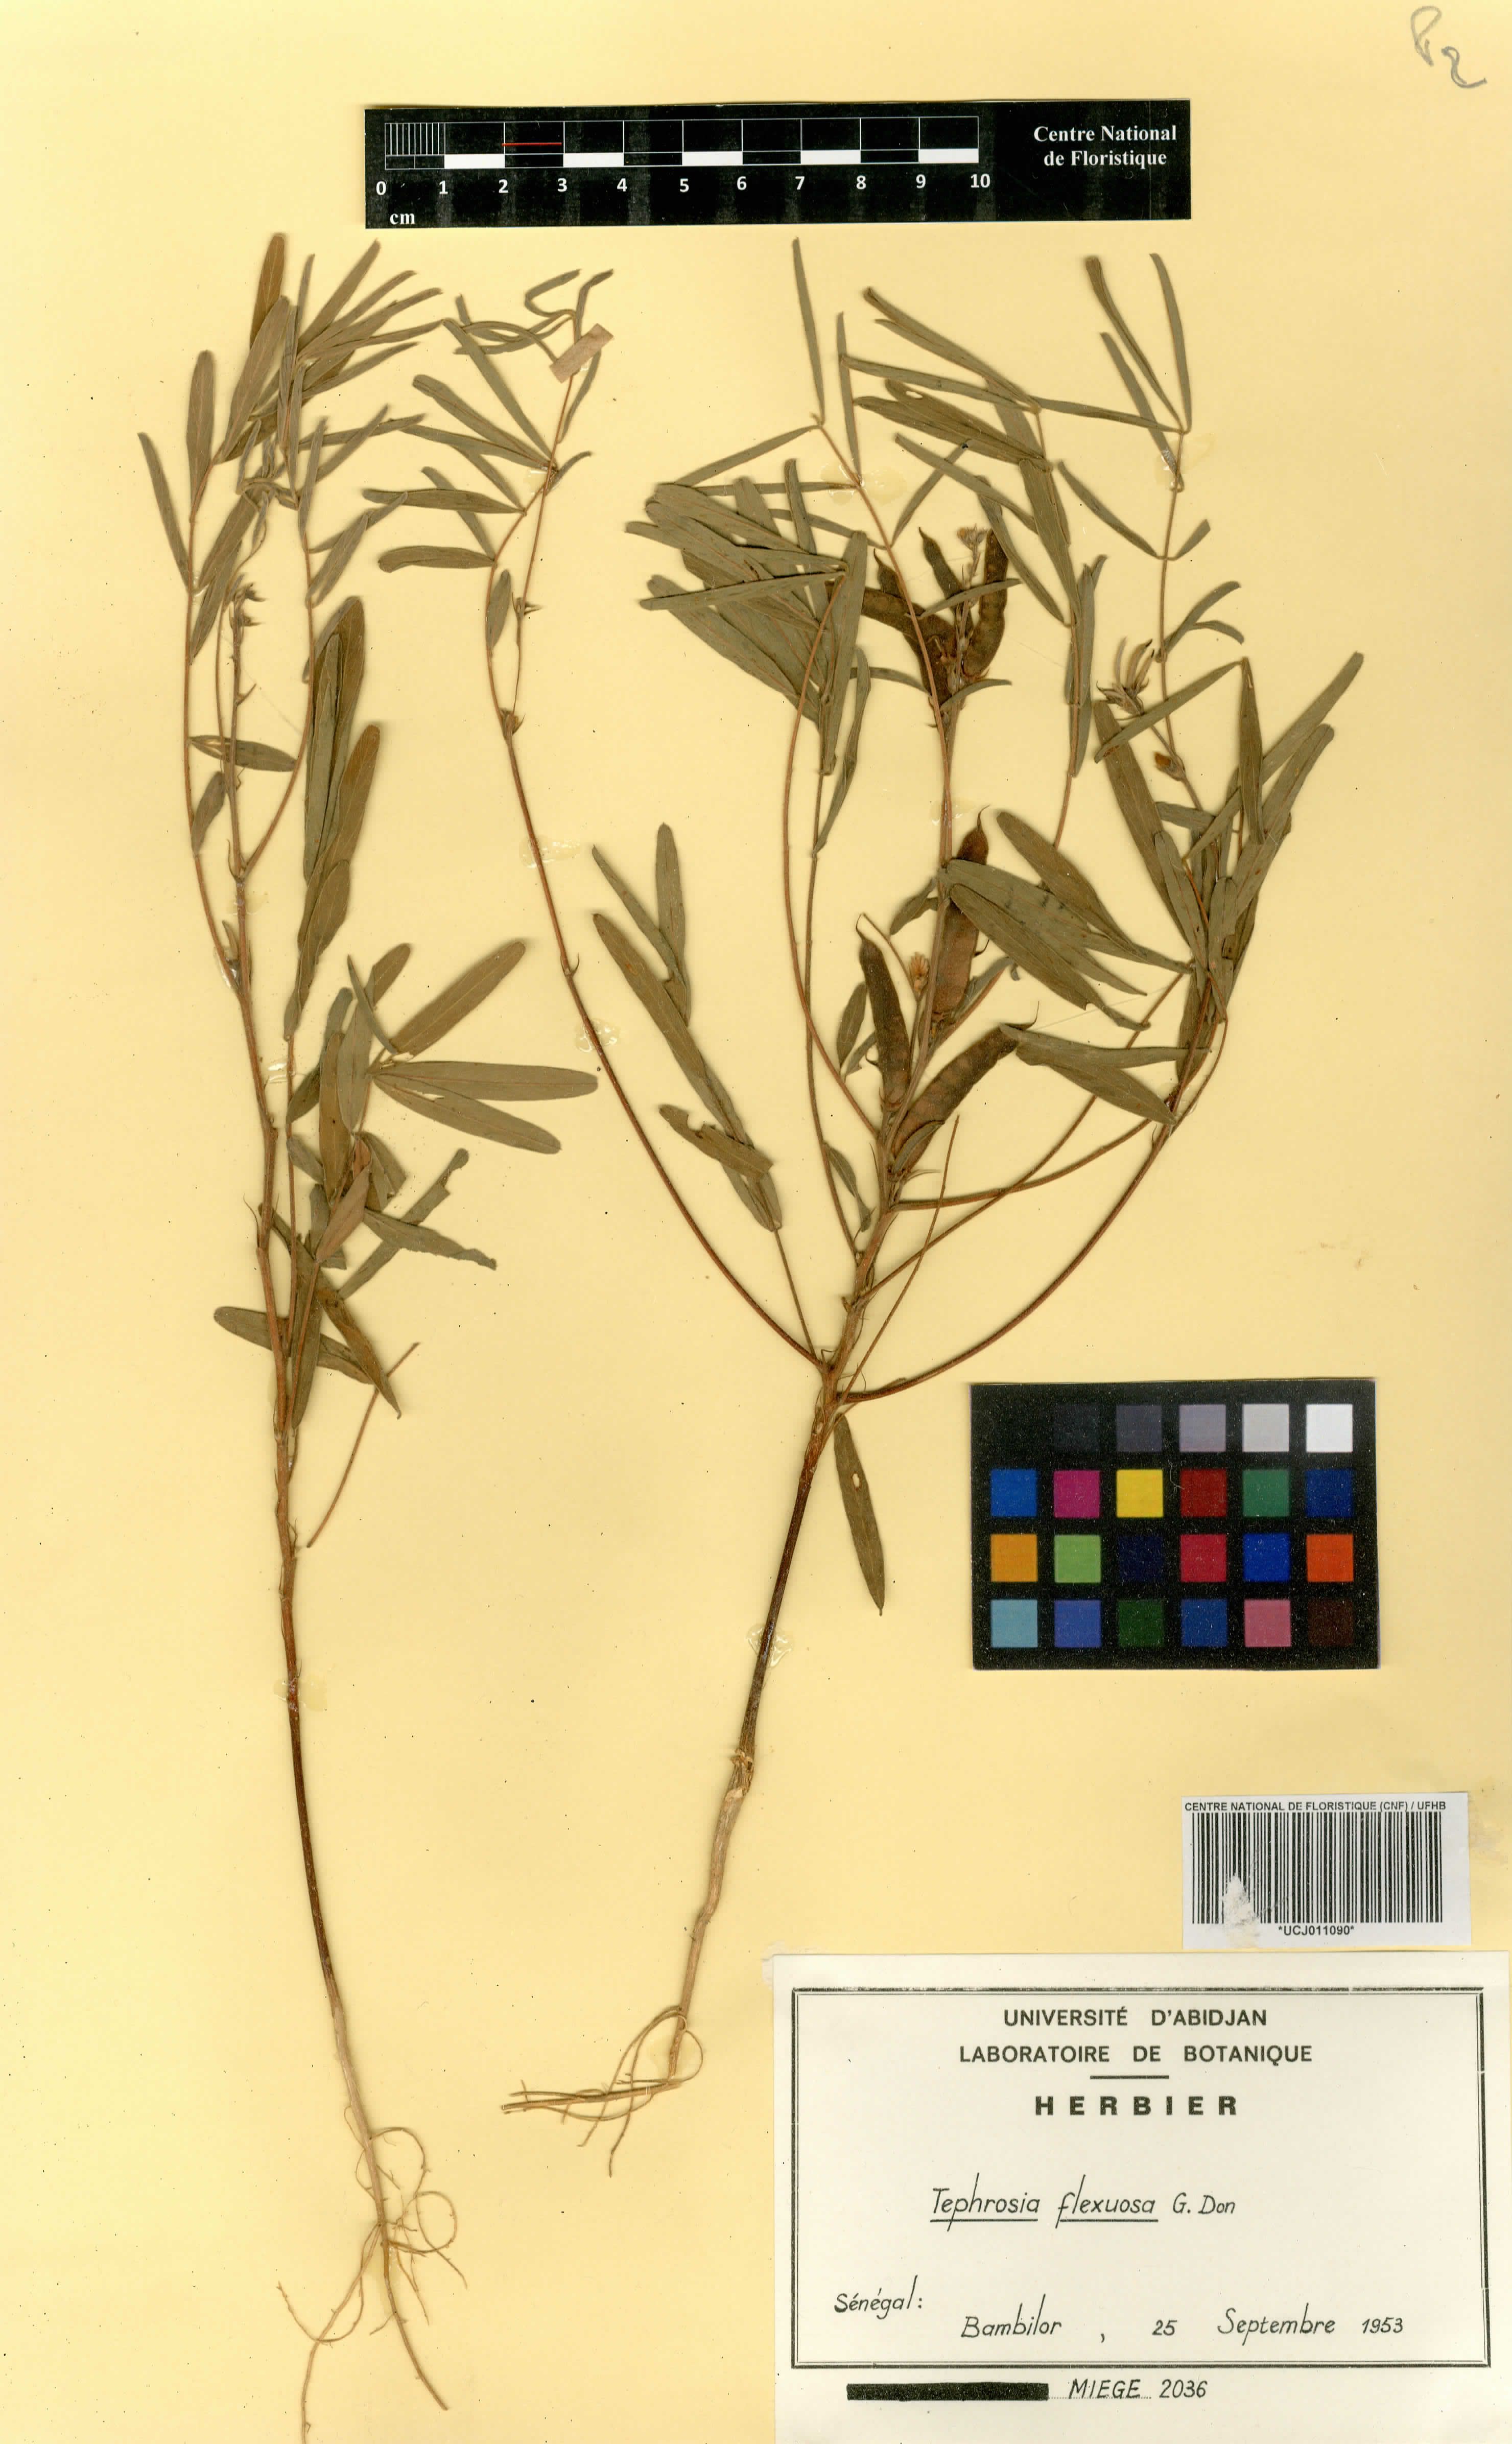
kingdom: Plantae
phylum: Tracheophyta
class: Magnoliopsida
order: Fabales
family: Fabaceae
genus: Tephrosia
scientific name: Tephrosia flexuosa
